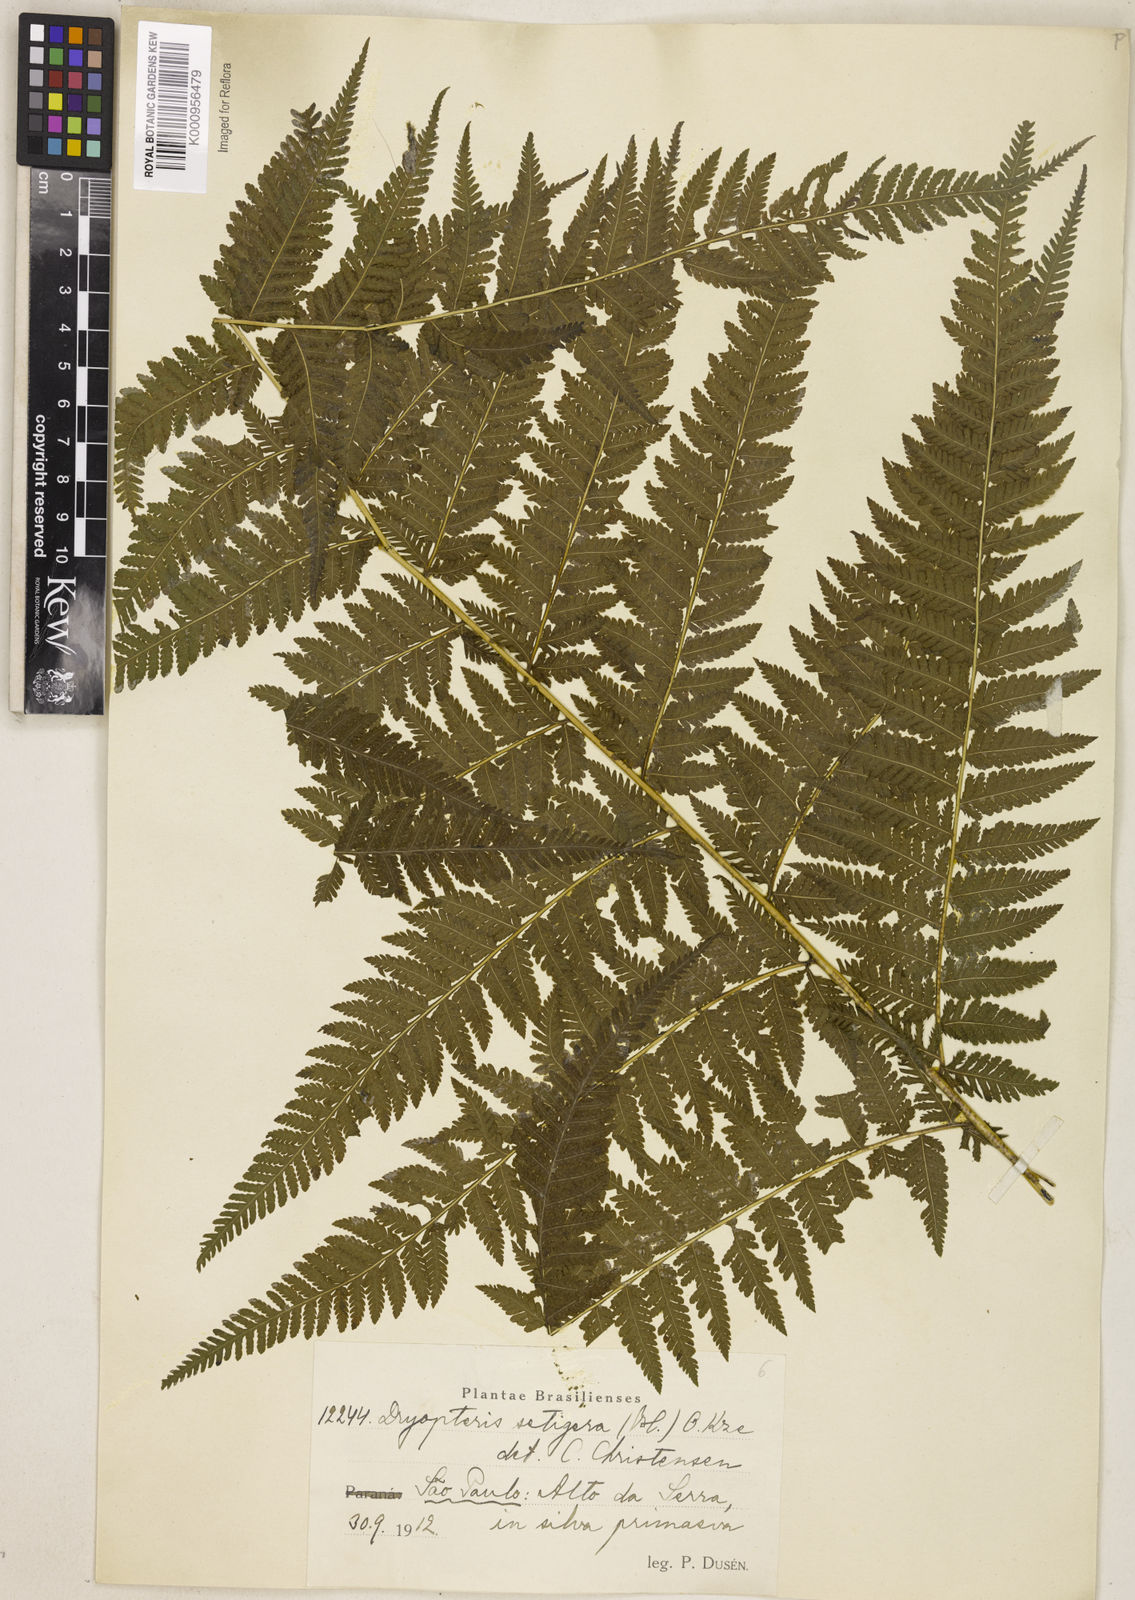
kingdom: Plantae
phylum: Tracheophyta
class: Polypodiopsida
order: Polypodiales
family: Thelypteridaceae
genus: Macrothelypteris
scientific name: Macrothelypteris torresiana
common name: Swordfern
